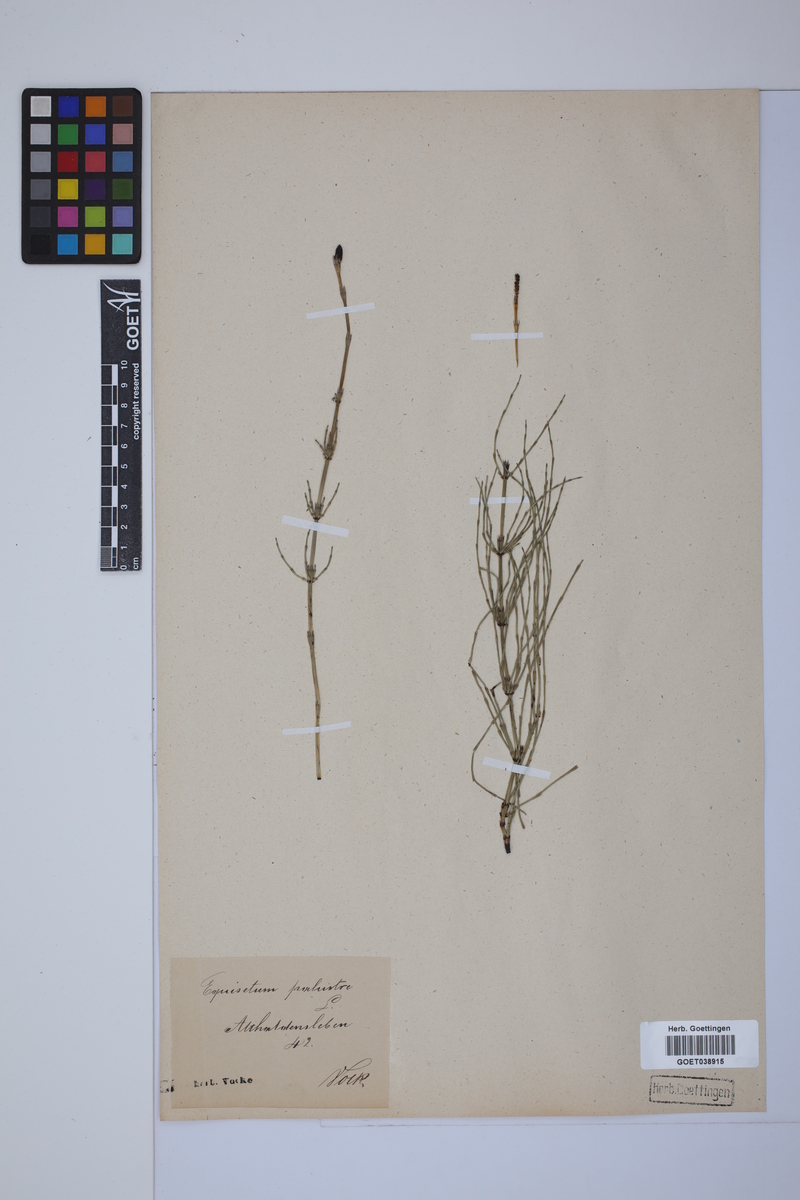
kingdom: Plantae
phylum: Tracheophyta
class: Polypodiopsida
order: Equisetales
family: Equisetaceae
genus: Equisetum
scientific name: Equisetum palustre
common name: Marsh horsetail
